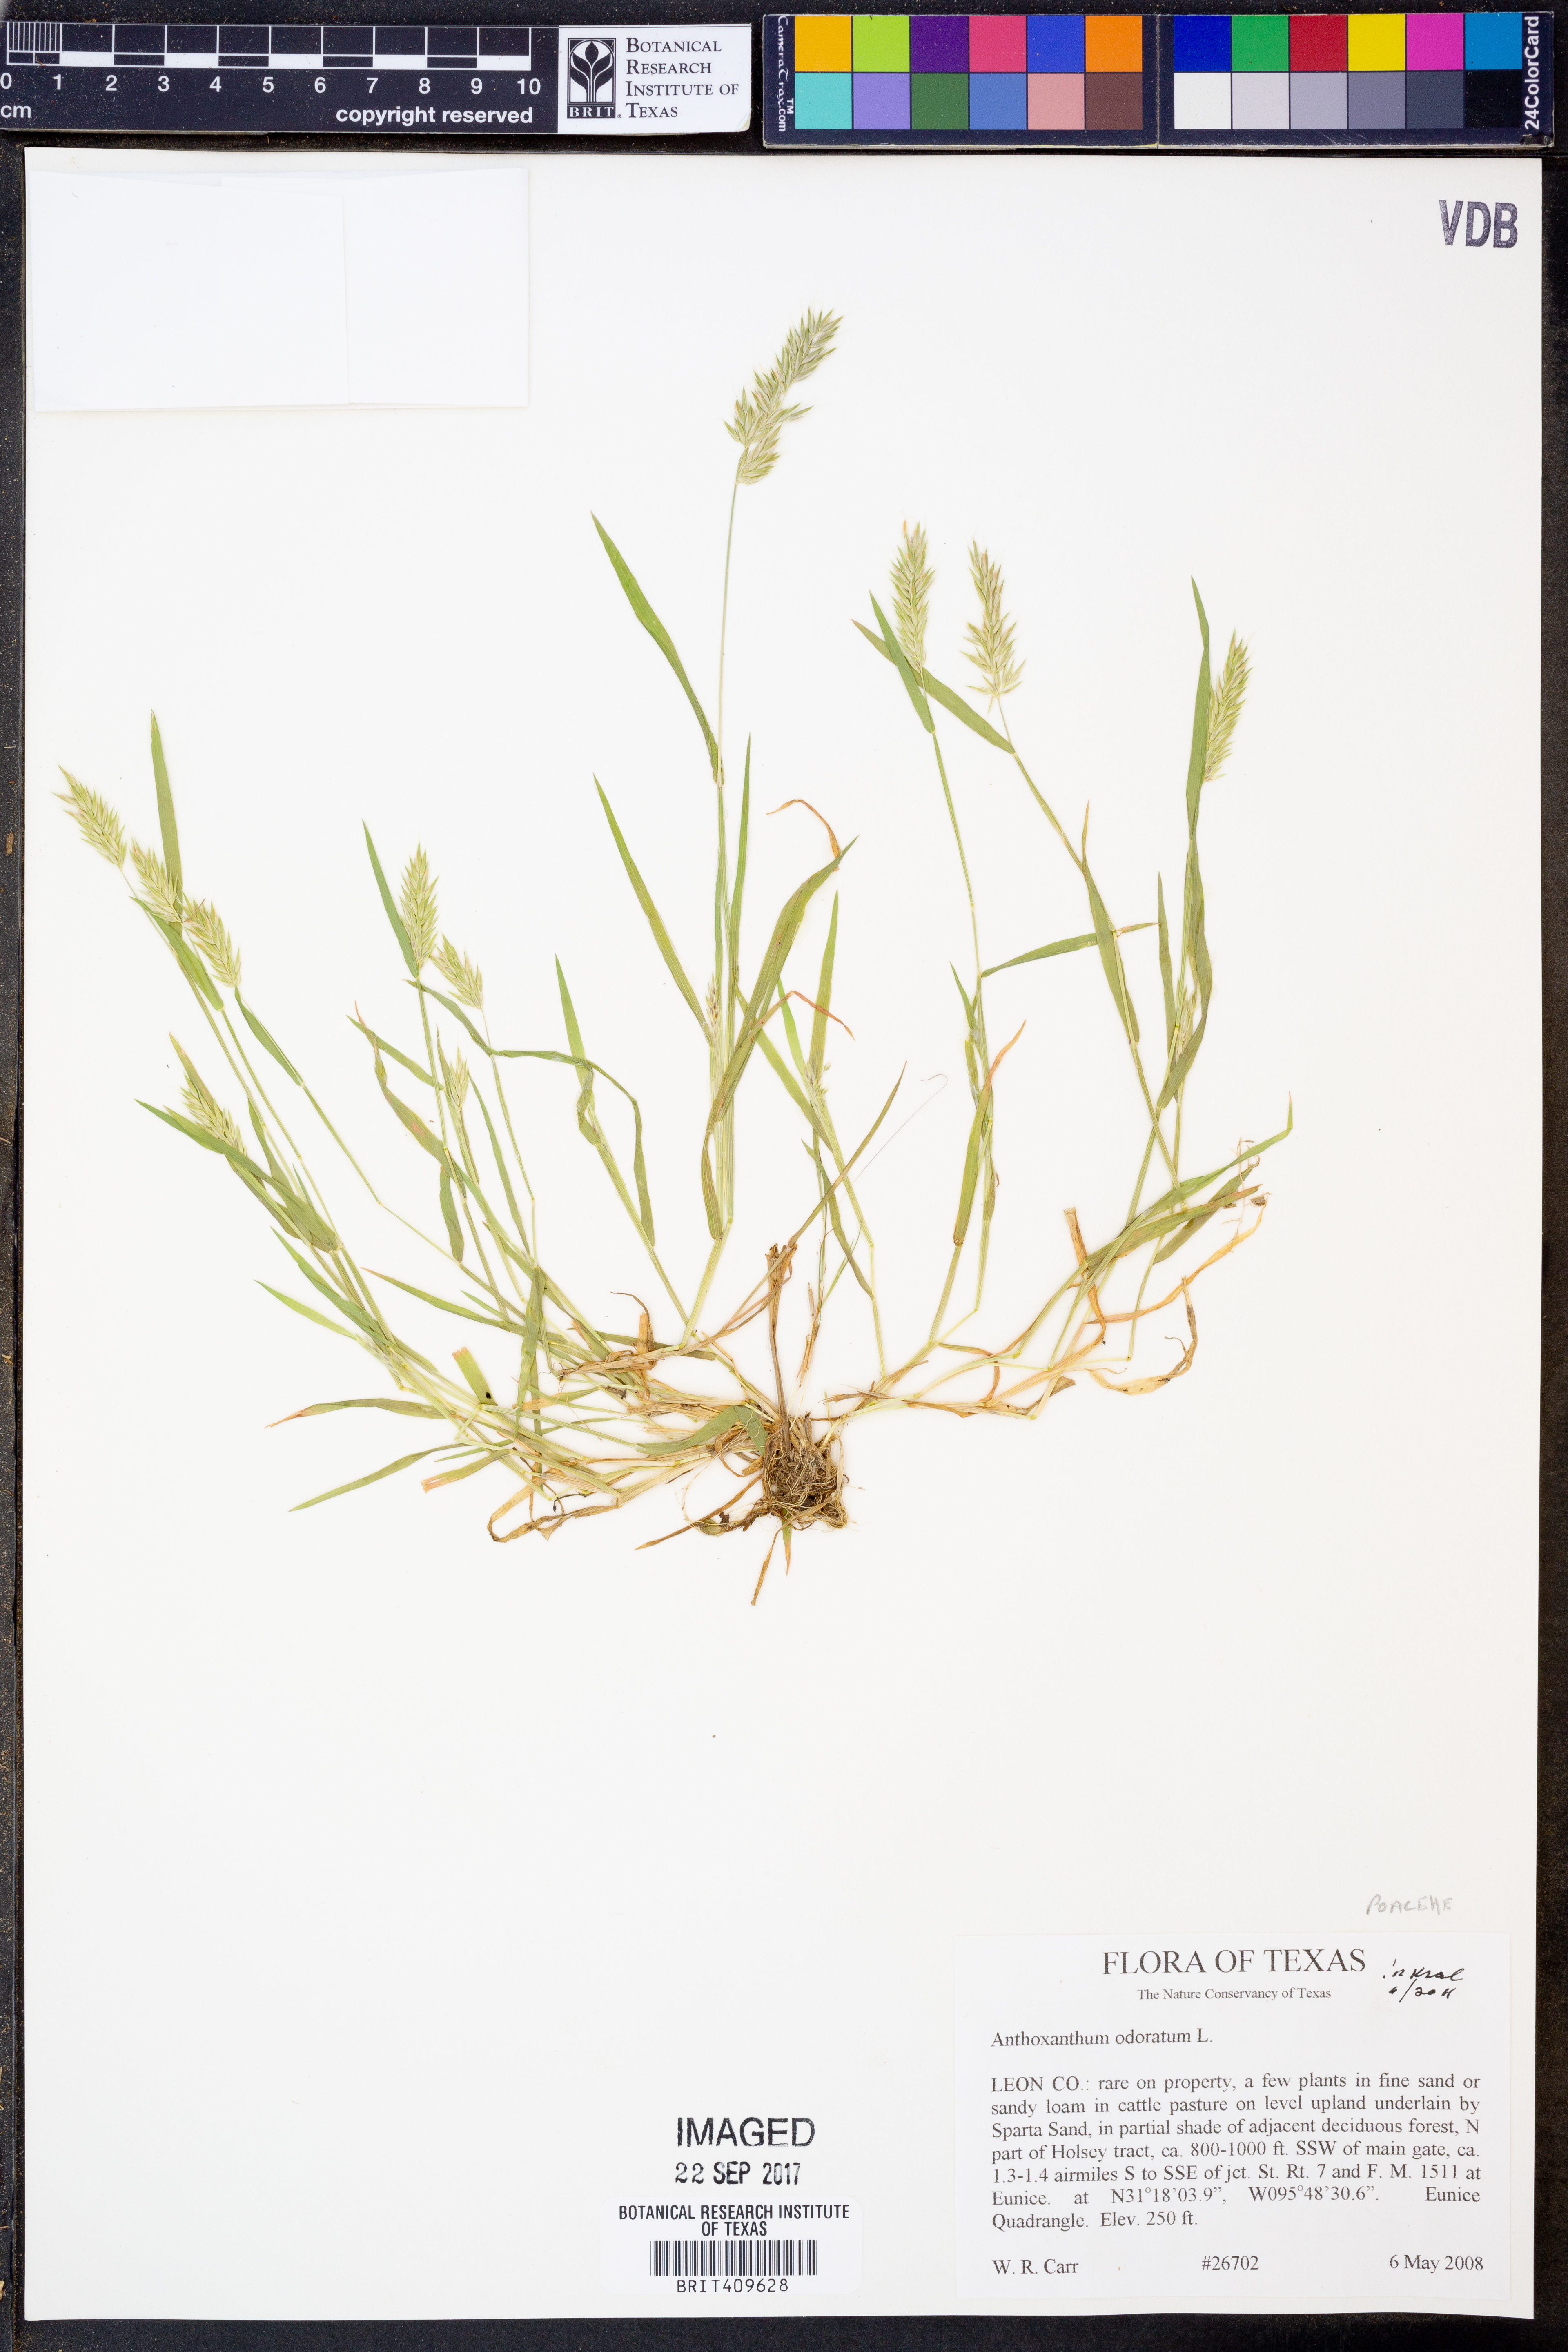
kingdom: Plantae
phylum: Tracheophyta
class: Liliopsida
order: Poales
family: Poaceae
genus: Anthoxanthum
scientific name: Anthoxanthum odoratum
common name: Sweet vernalgrass
